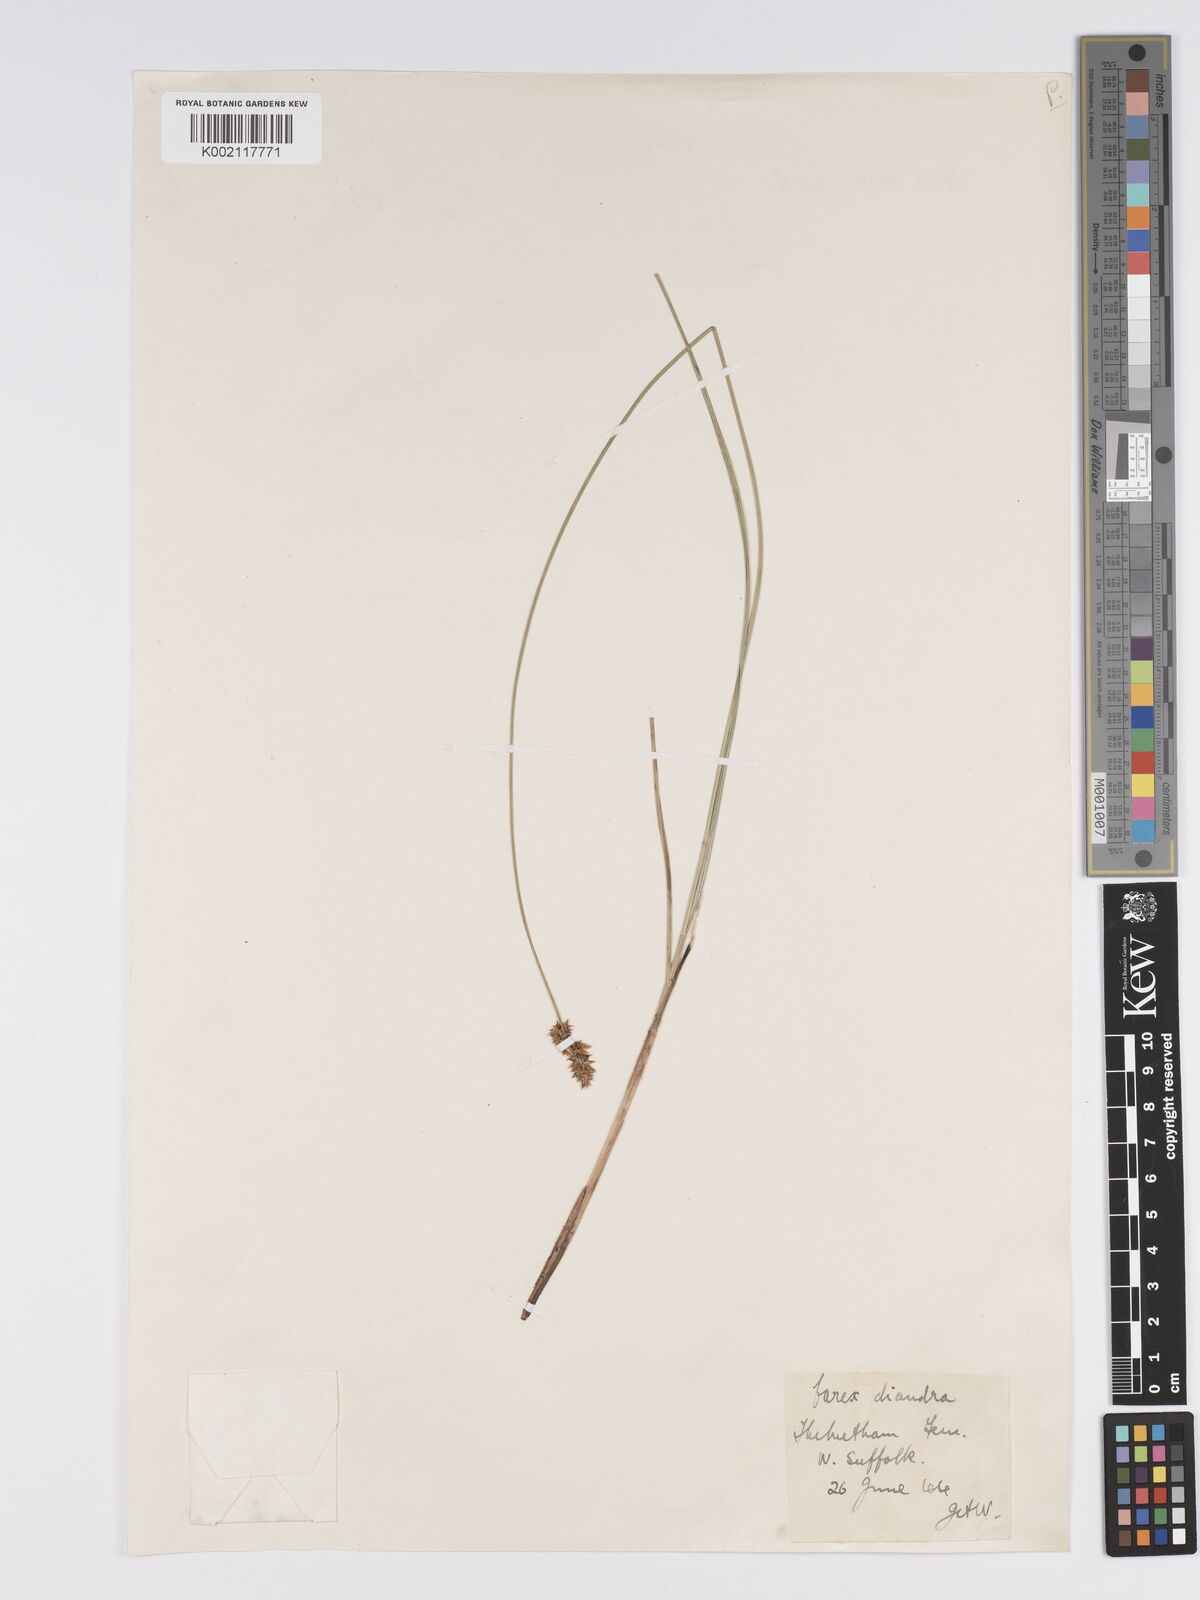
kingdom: Plantae
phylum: Tracheophyta
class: Liliopsida
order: Poales
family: Cyperaceae
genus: Carex
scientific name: Carex diandra
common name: Lesser tussock-sedge
